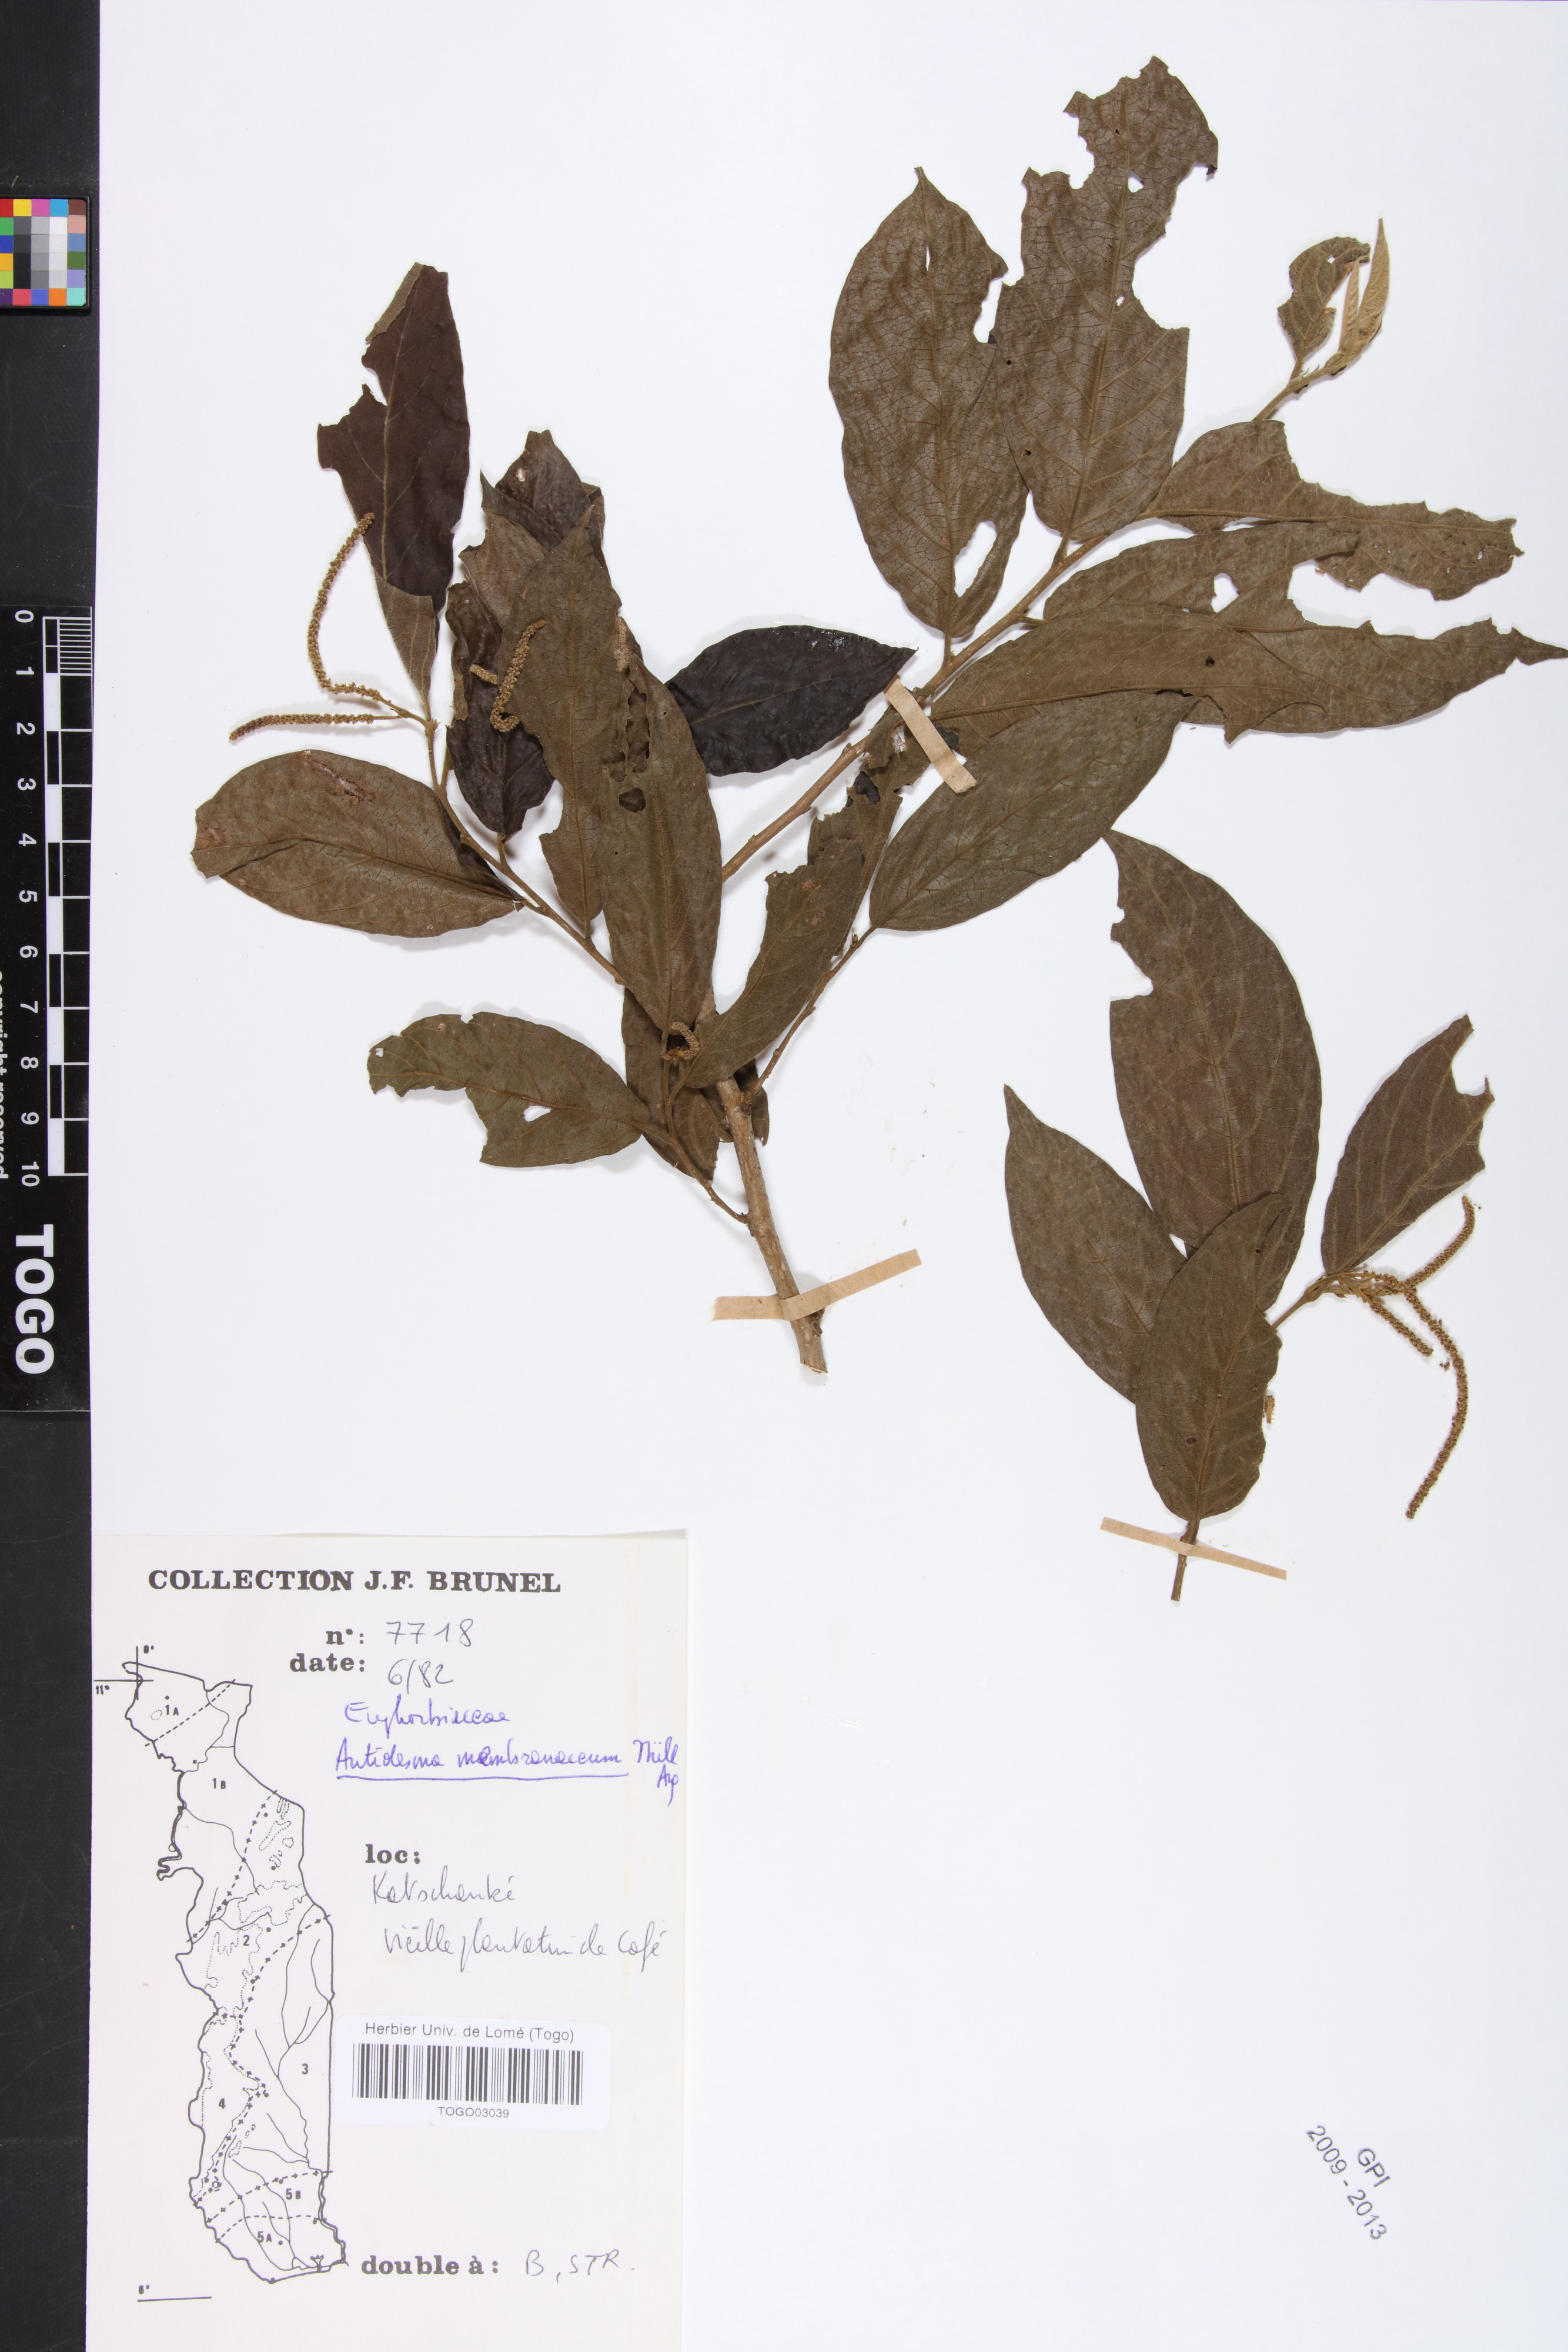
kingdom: Plantae
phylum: Tracheophyta
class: Magnoliopsida
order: Malpighiales
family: Phyllanthaceae
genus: Antidesma
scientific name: Antidesma membranaceum
